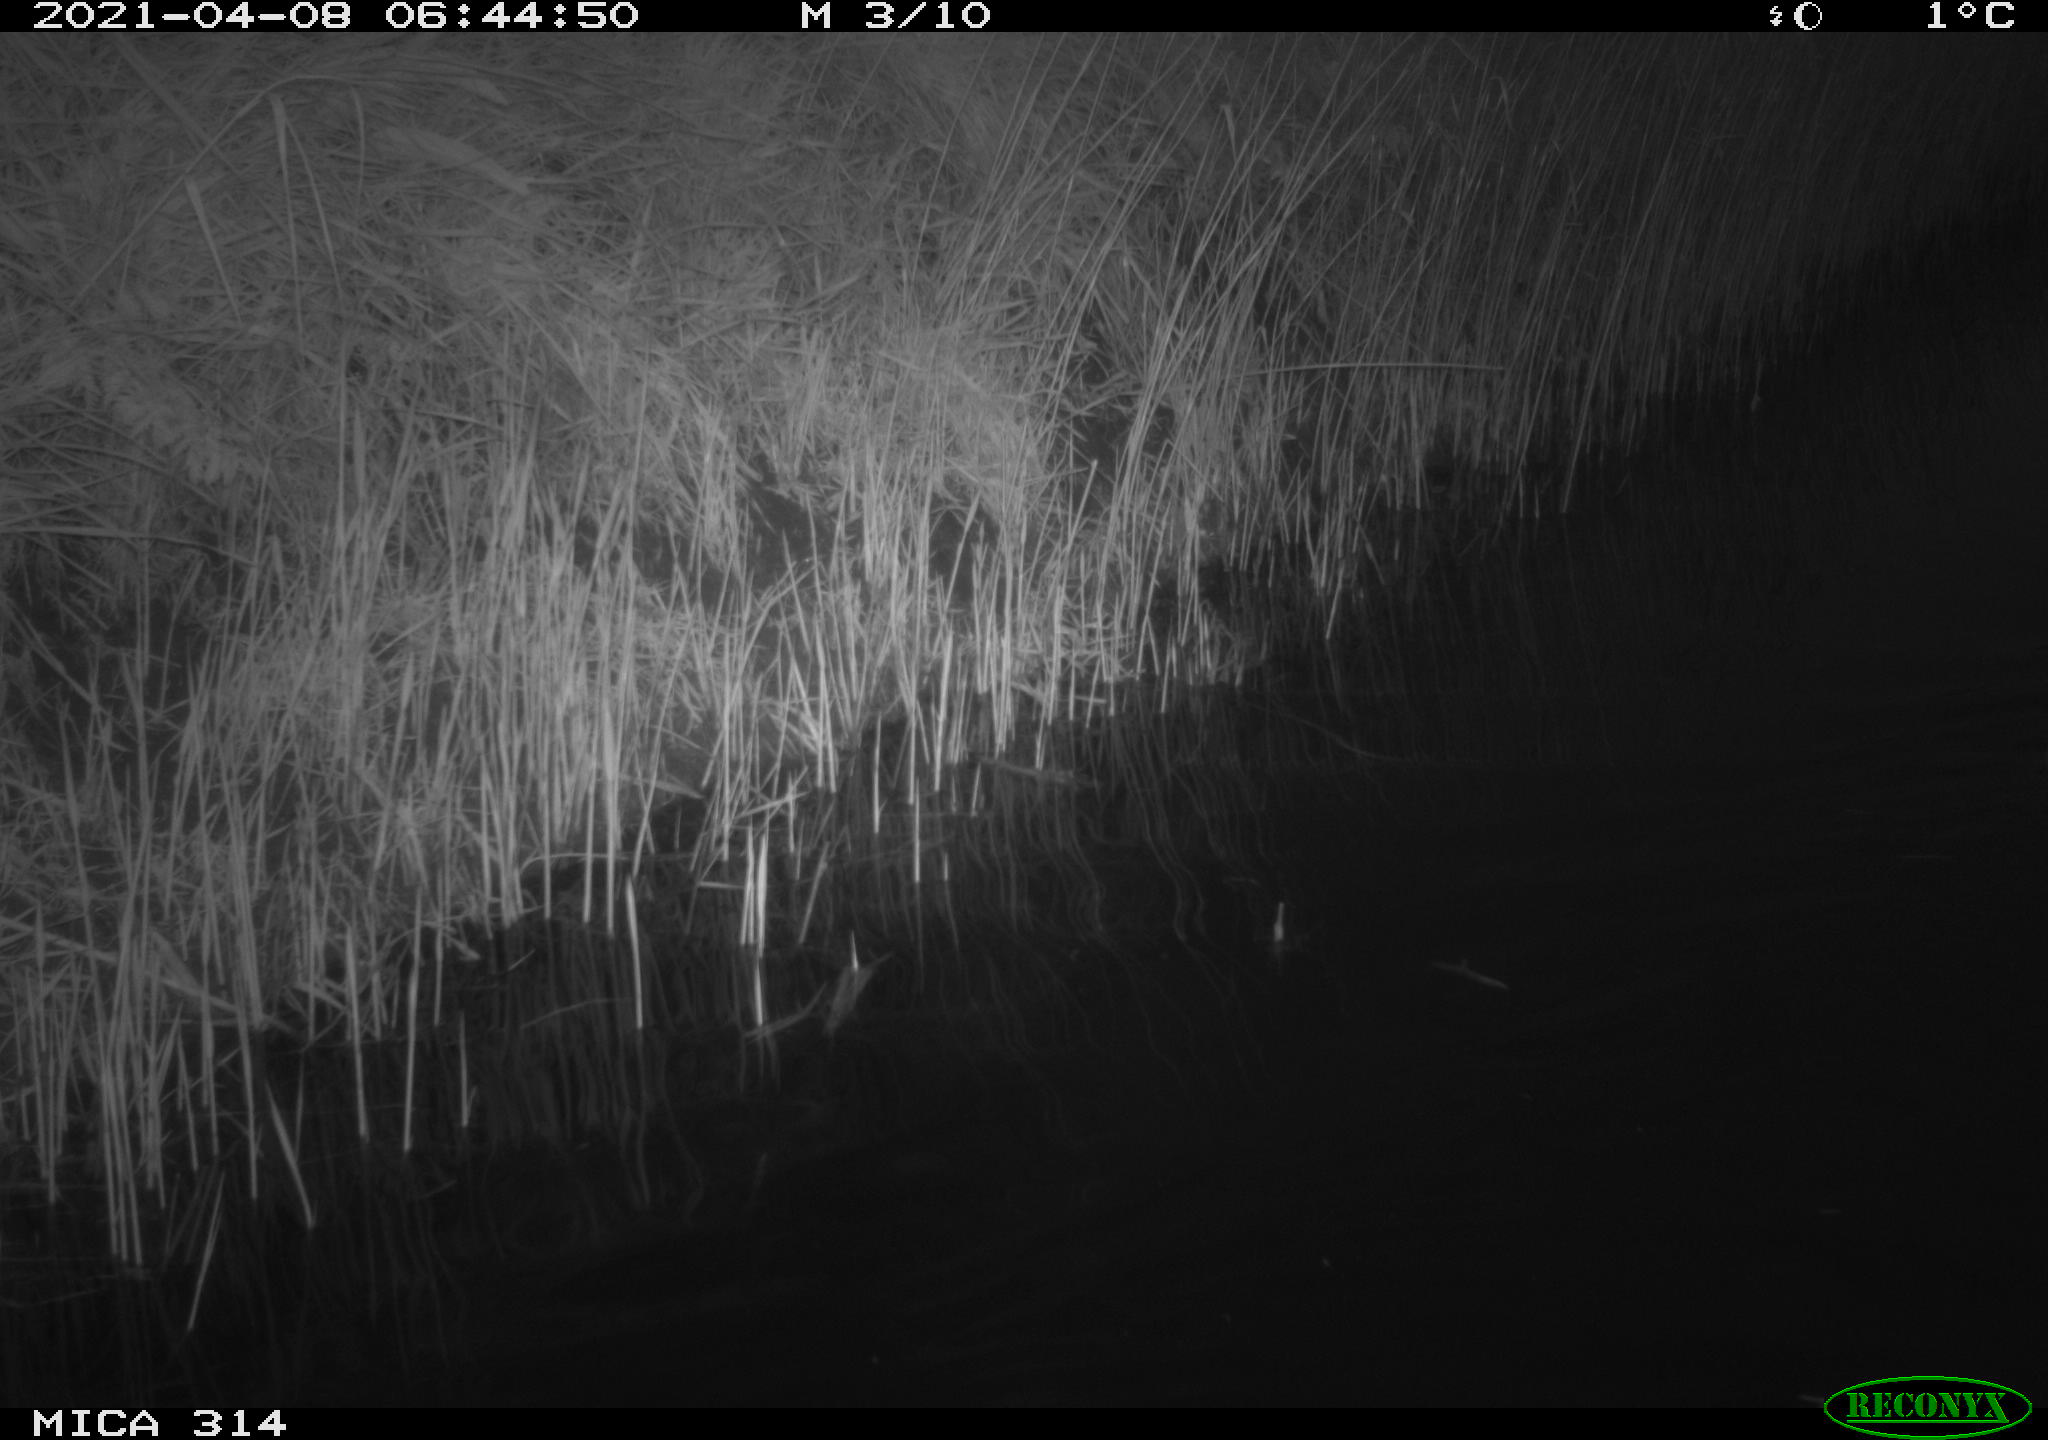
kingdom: Animalia
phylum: Chordata
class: Aves
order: Anseriformes
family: Anatidae
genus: Anas
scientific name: Anas platyrhynchos
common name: Mallard
